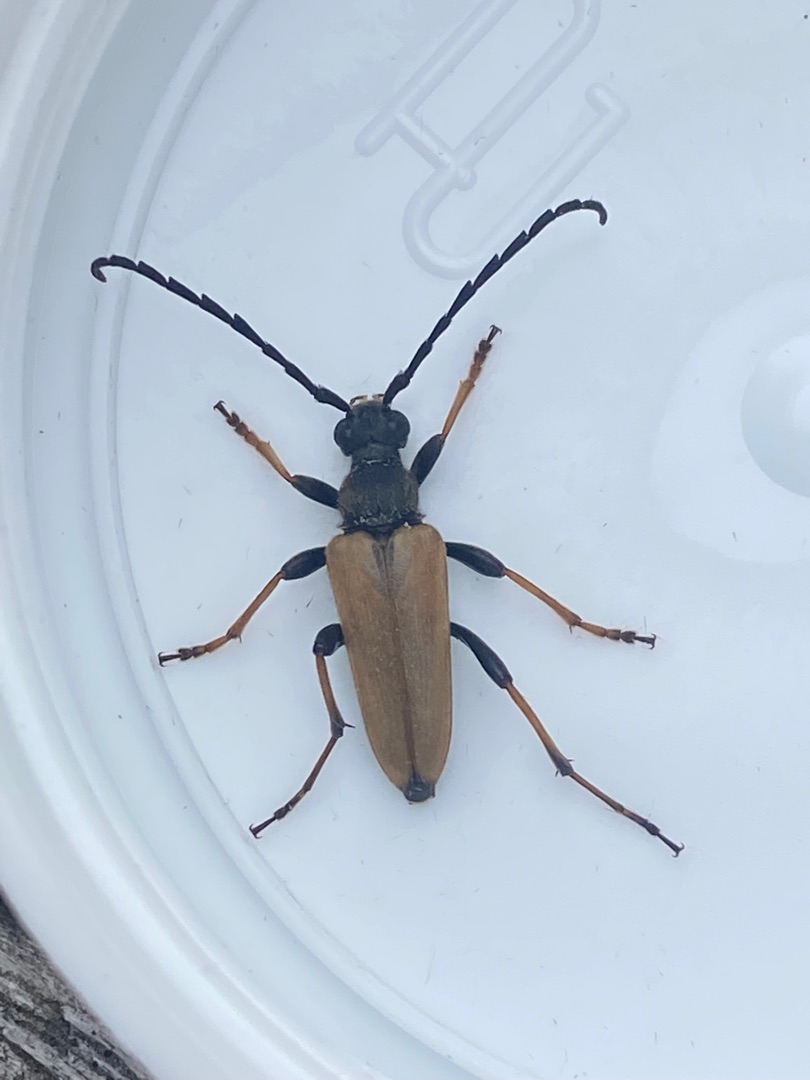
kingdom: Animalia
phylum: Arthropoda
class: Insecta
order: Coleoptera
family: Cerambycidae
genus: Stictoleptura
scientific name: Stictoleptura rubra
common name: Rød blomsterbuk
